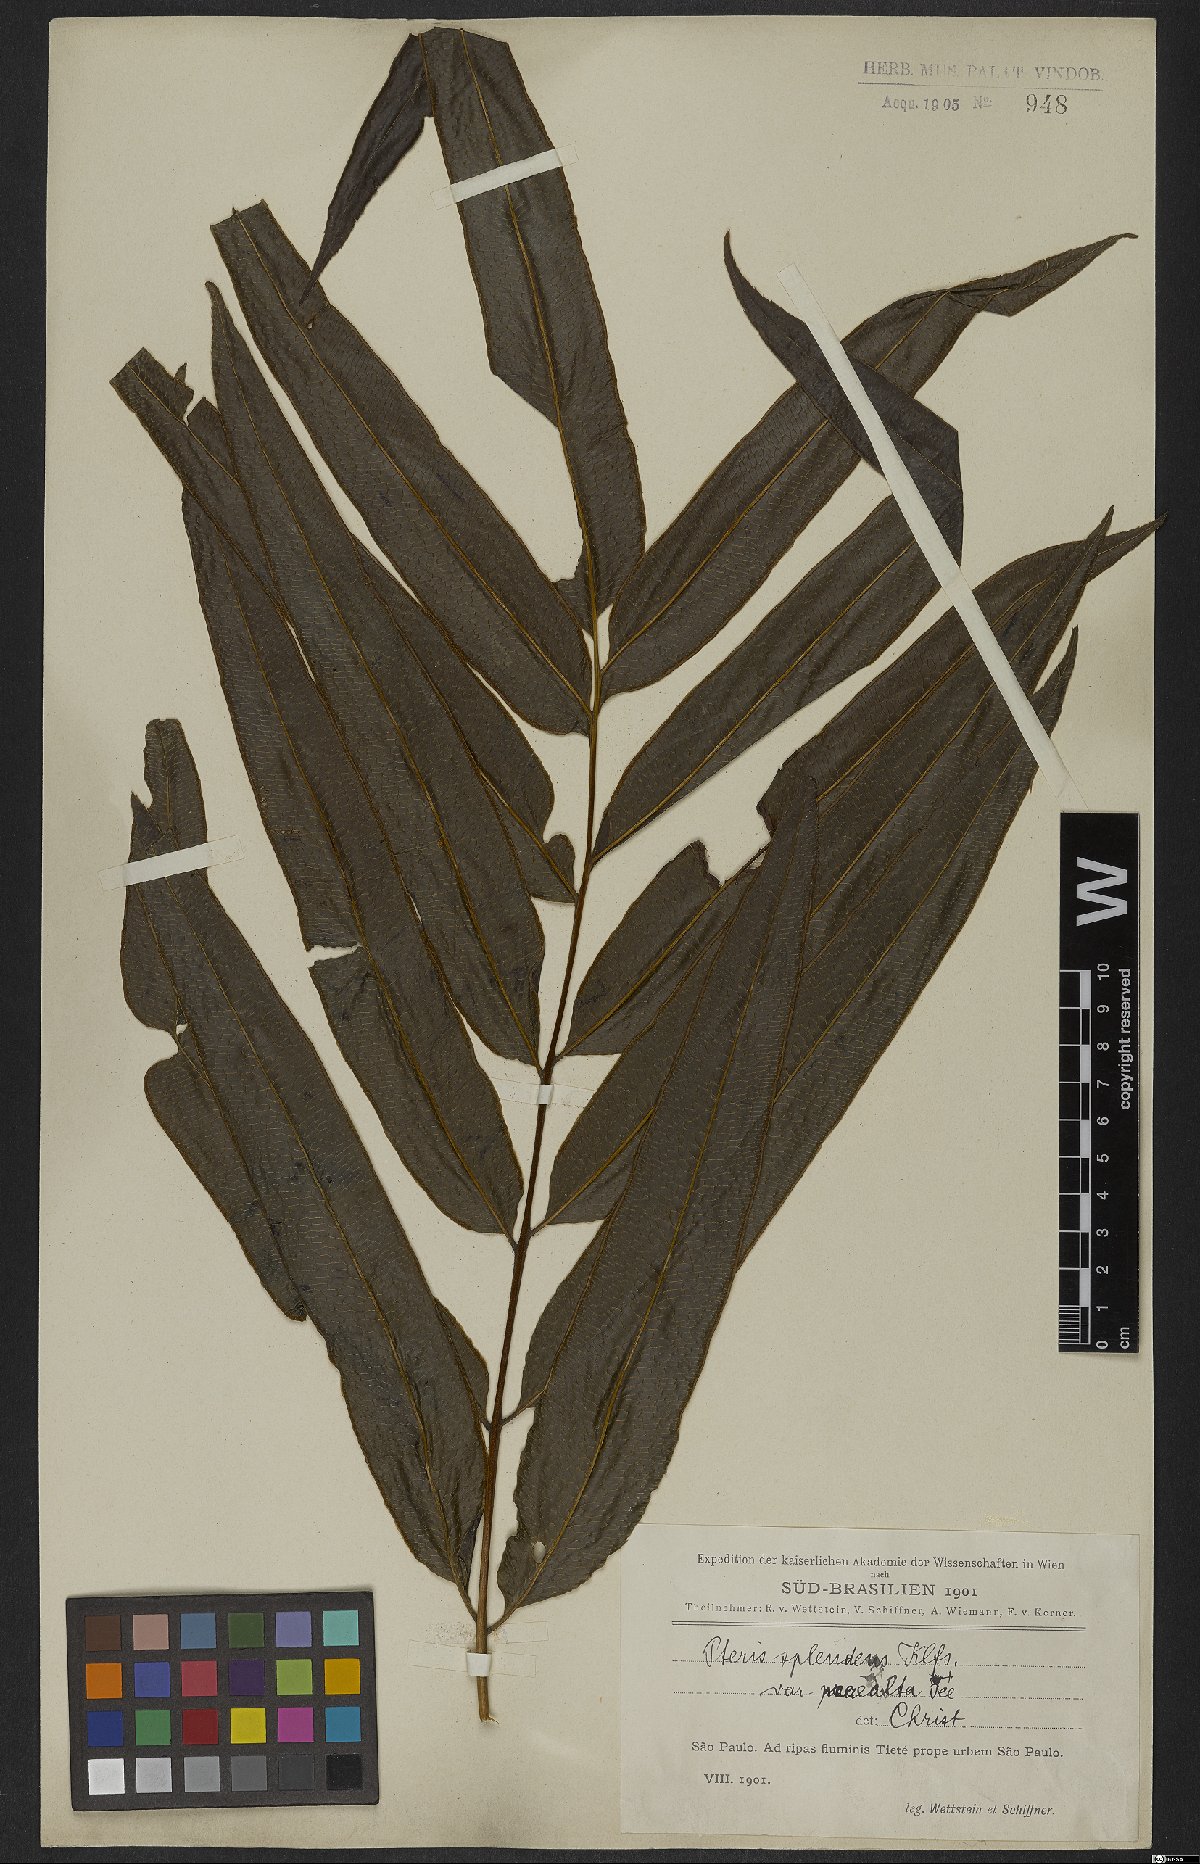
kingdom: Plantae
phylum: Tracheophyta
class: Polypodiopsida
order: Polypodiales
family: Pteridaceae
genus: Pteris
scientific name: Pteris splendens
